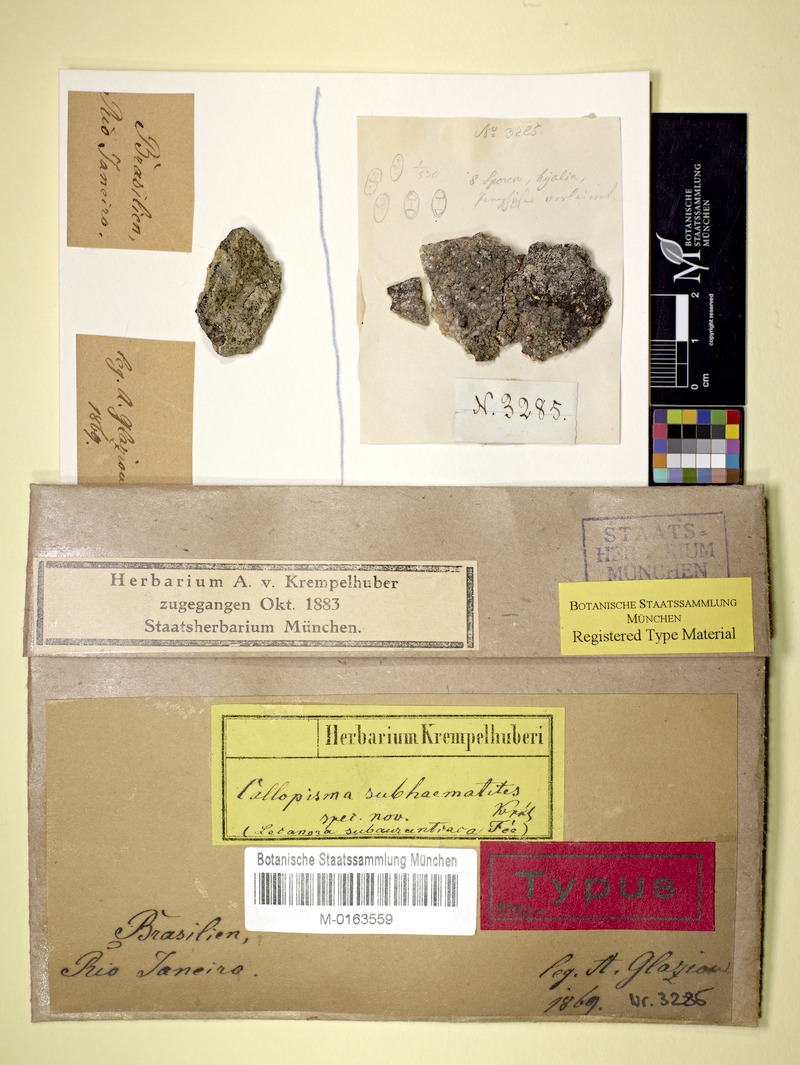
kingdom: Fungi
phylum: Ascomycota
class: Lecanoromycetes
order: Teloschistales
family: Teloschistaceae
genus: Caloplaca
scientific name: Caloplaca subaurantiaca
